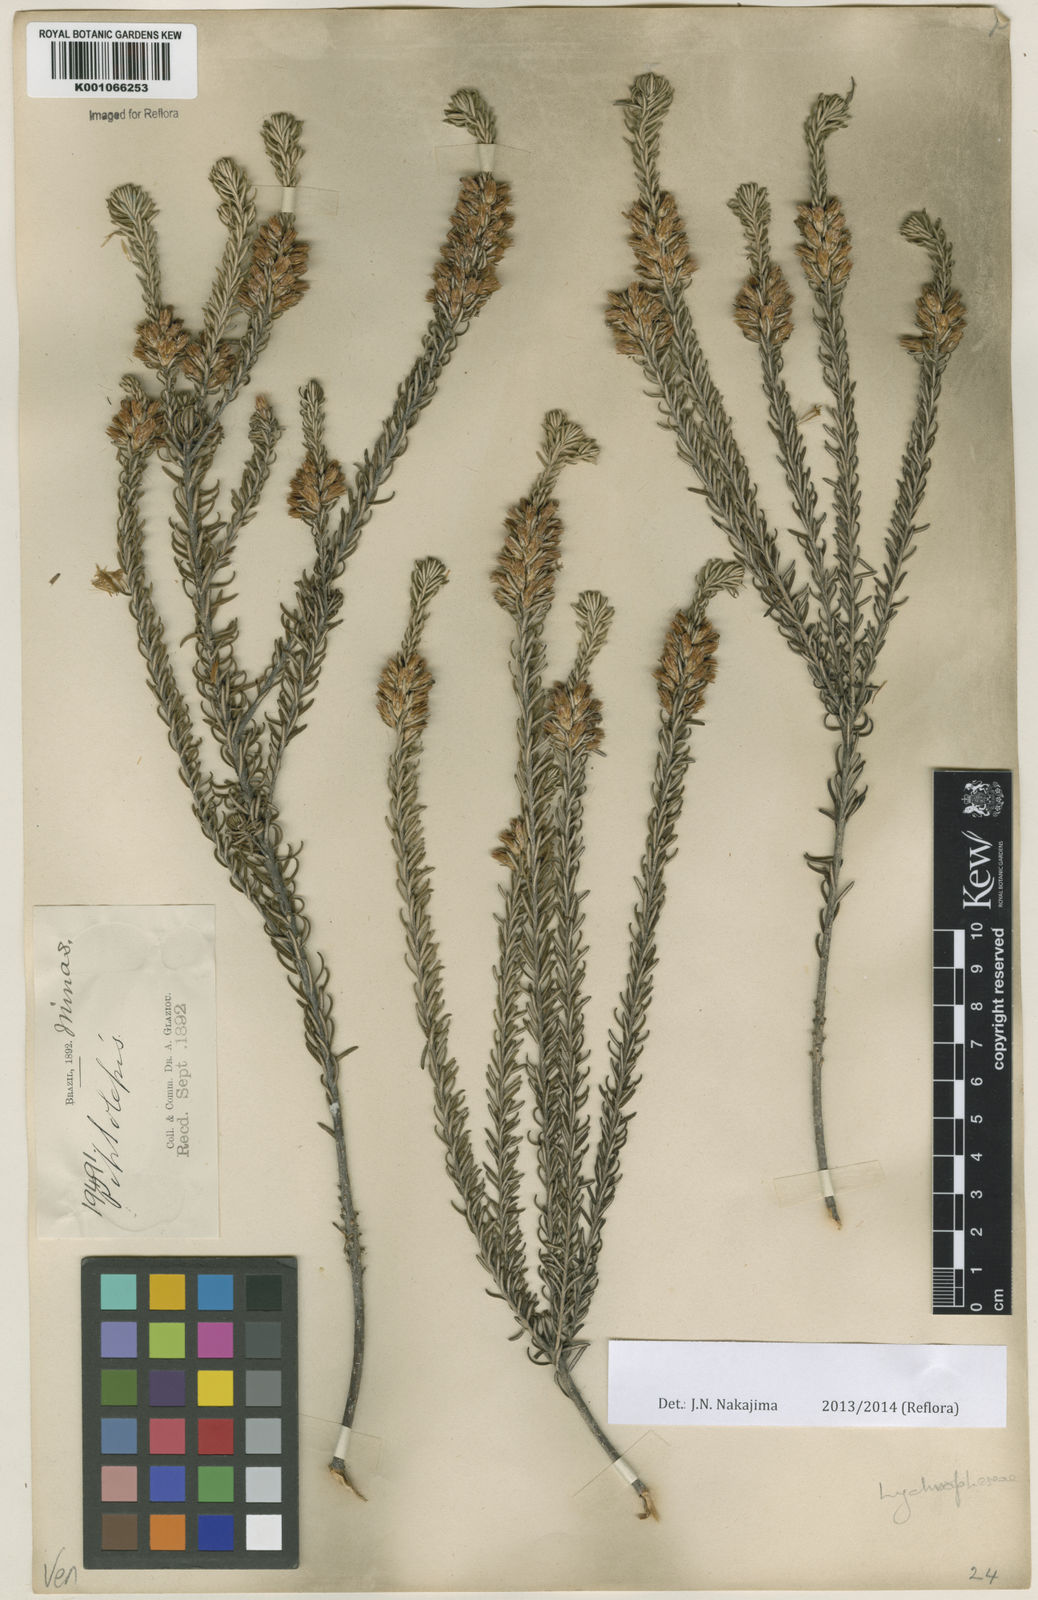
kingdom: Plantae
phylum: Tracheophyta
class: Magnoliopsida
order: Asterales
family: Asteraceae
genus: Lychnophora
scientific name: Lychnophora souzae
